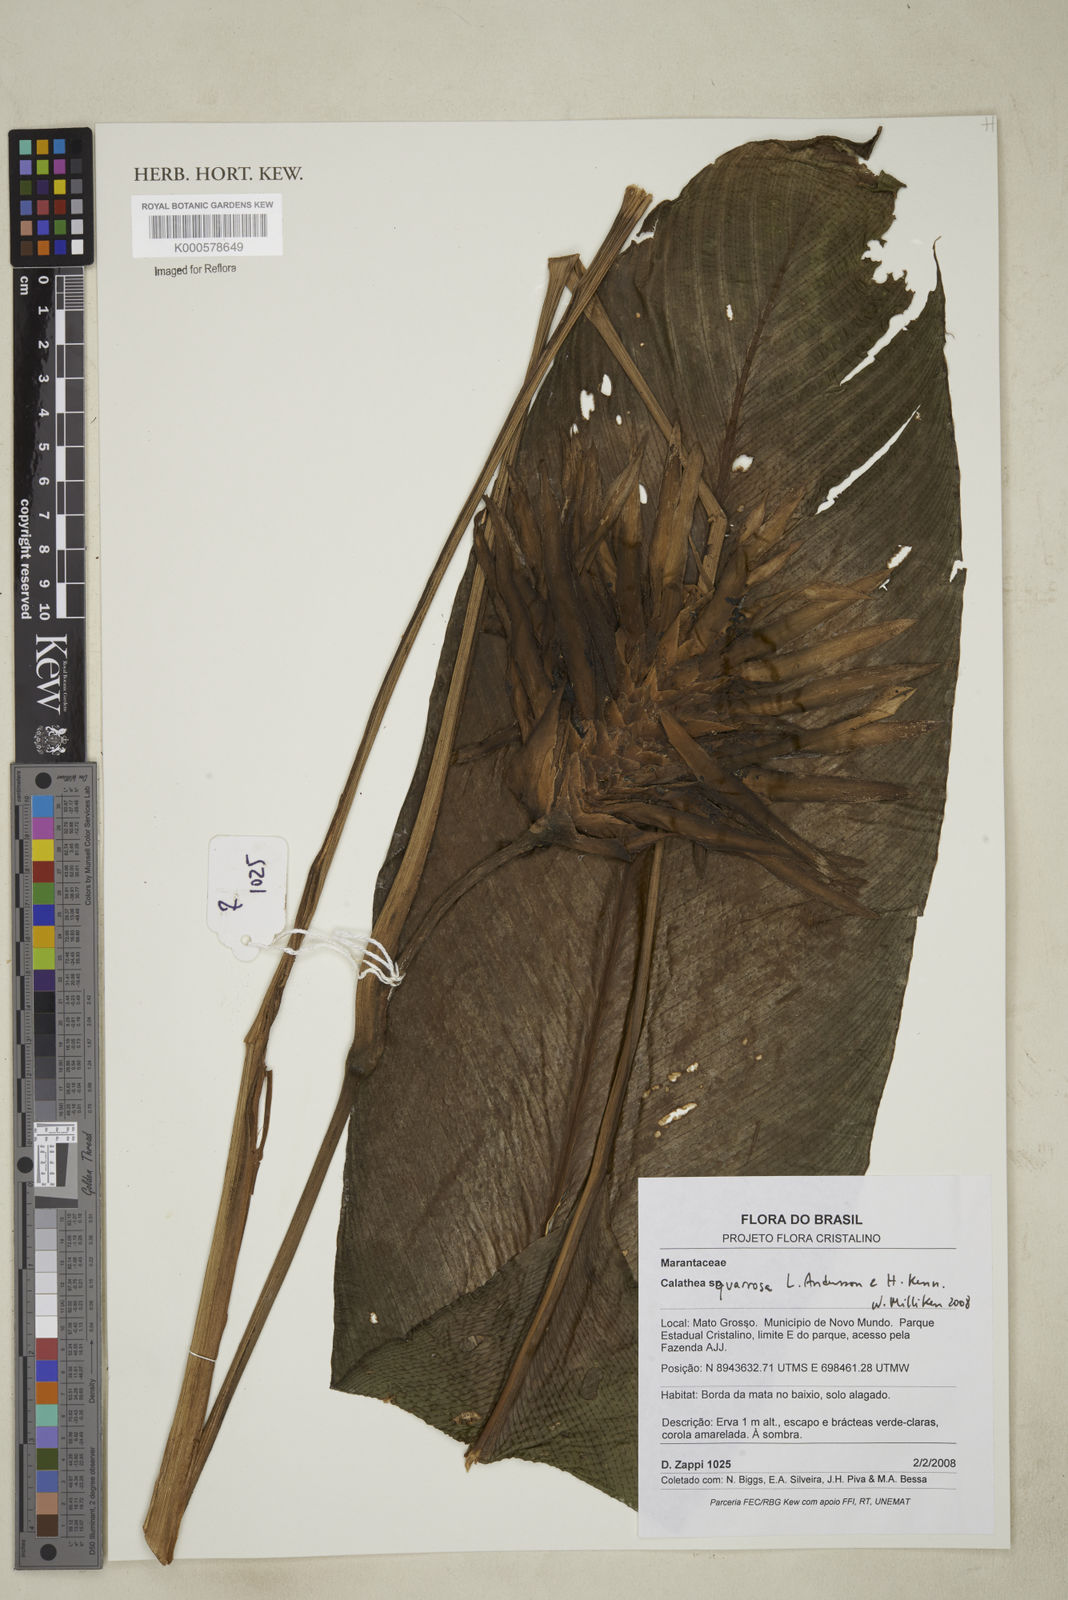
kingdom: Plantae
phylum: Tracheophyta
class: Liliopsida
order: Zingiberales
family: Marantaceae
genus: Goeppertia
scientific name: Goeppertia squarrosa
